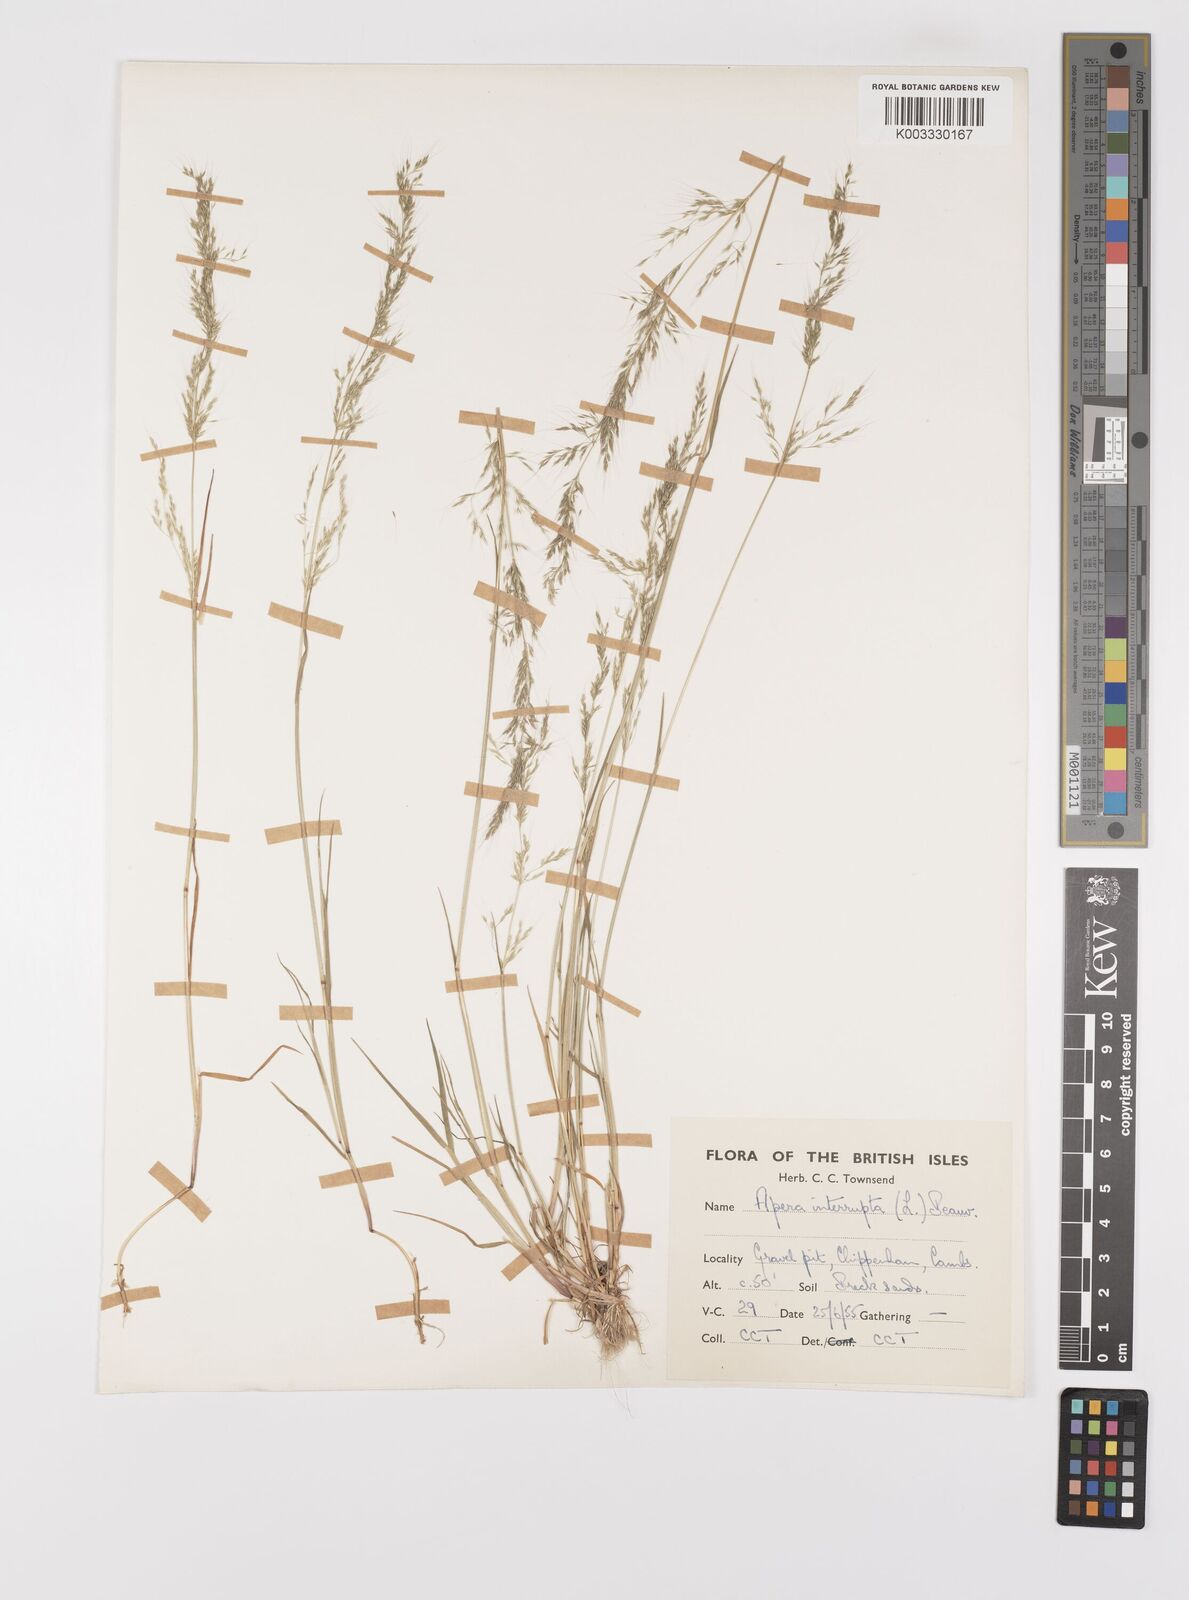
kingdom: Plantae
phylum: Tracheophyta
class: Liliopsida
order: Poales
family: Poaceae
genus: Apera
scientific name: Apera interrupta
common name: Dense silky-bent
